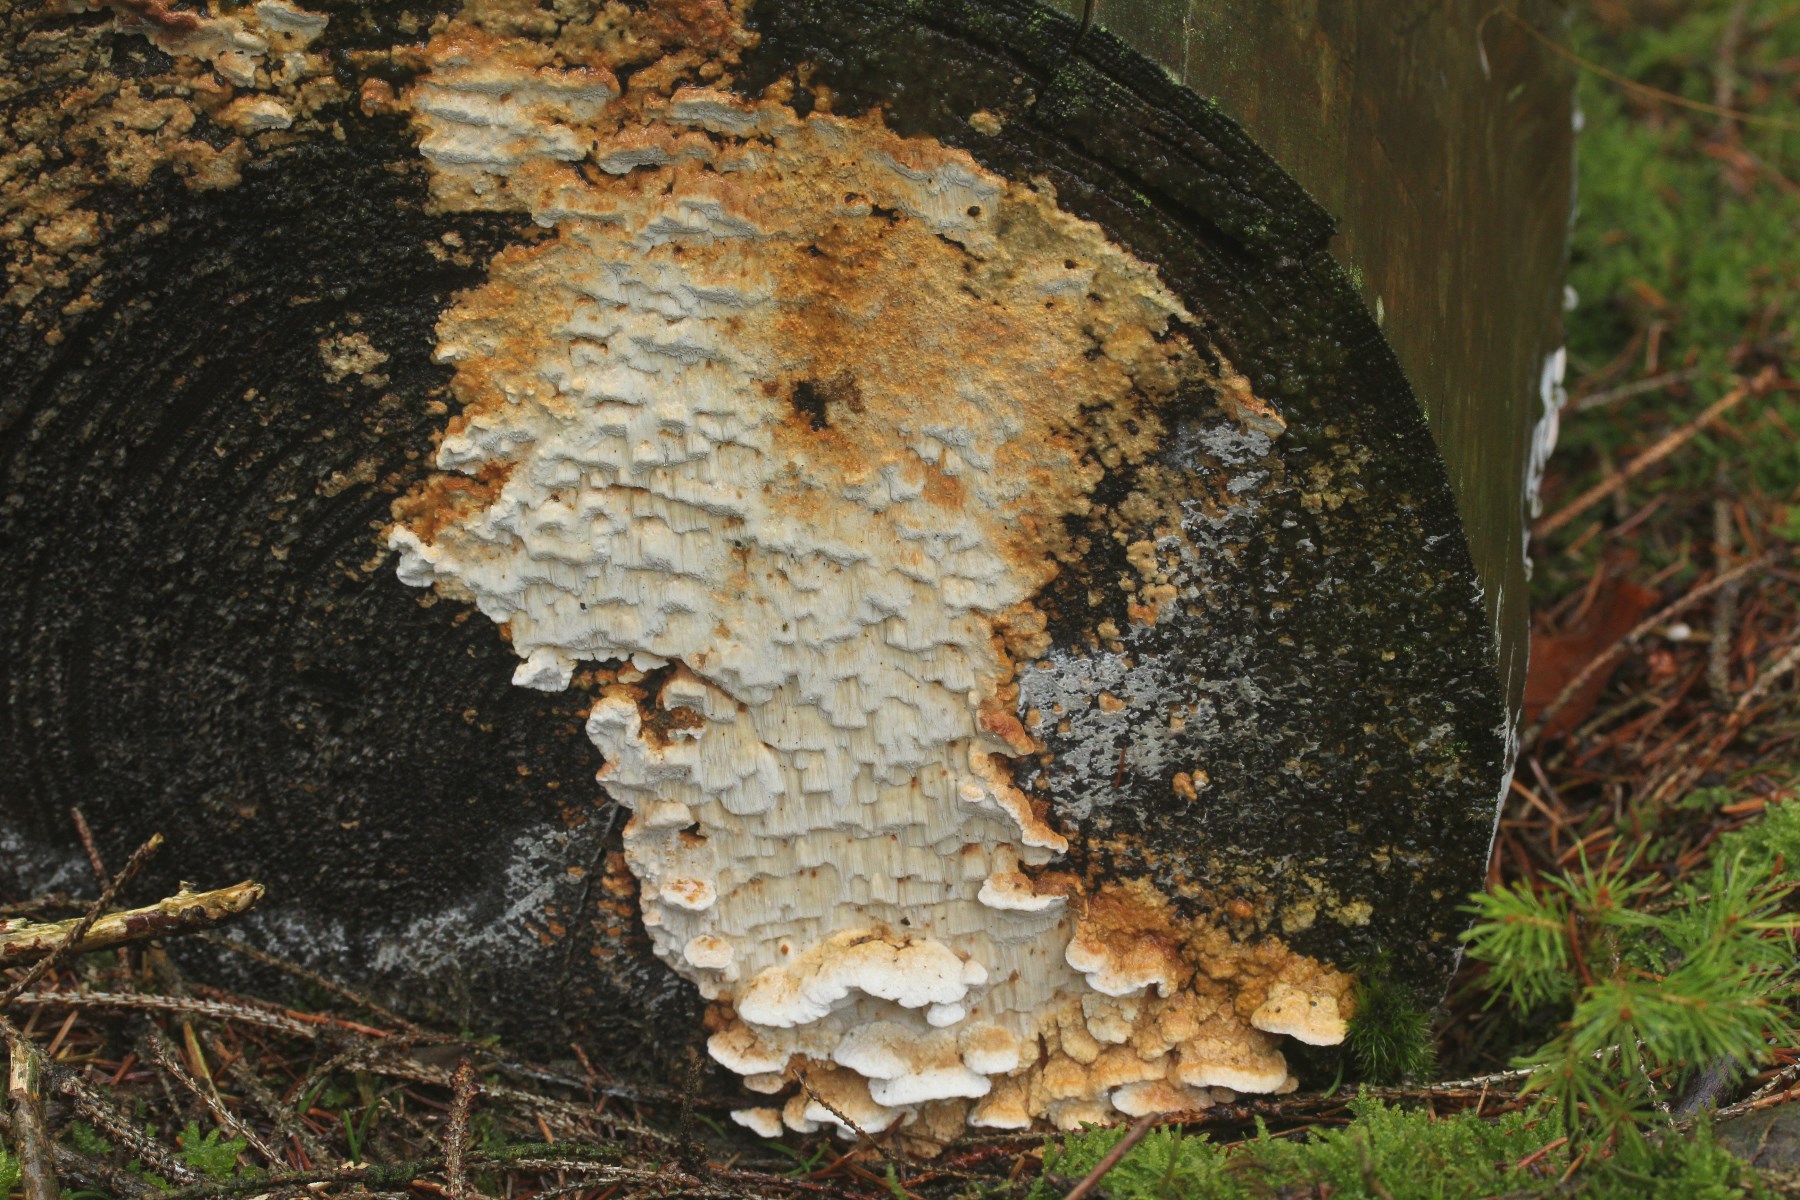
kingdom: Fungi
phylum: Basidiomycota
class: Agaricomycetes
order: Polyporales
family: Fomitopsidaceae
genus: Neoantrodia
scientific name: Neoantrodia serialis
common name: række-sejporesvamp
